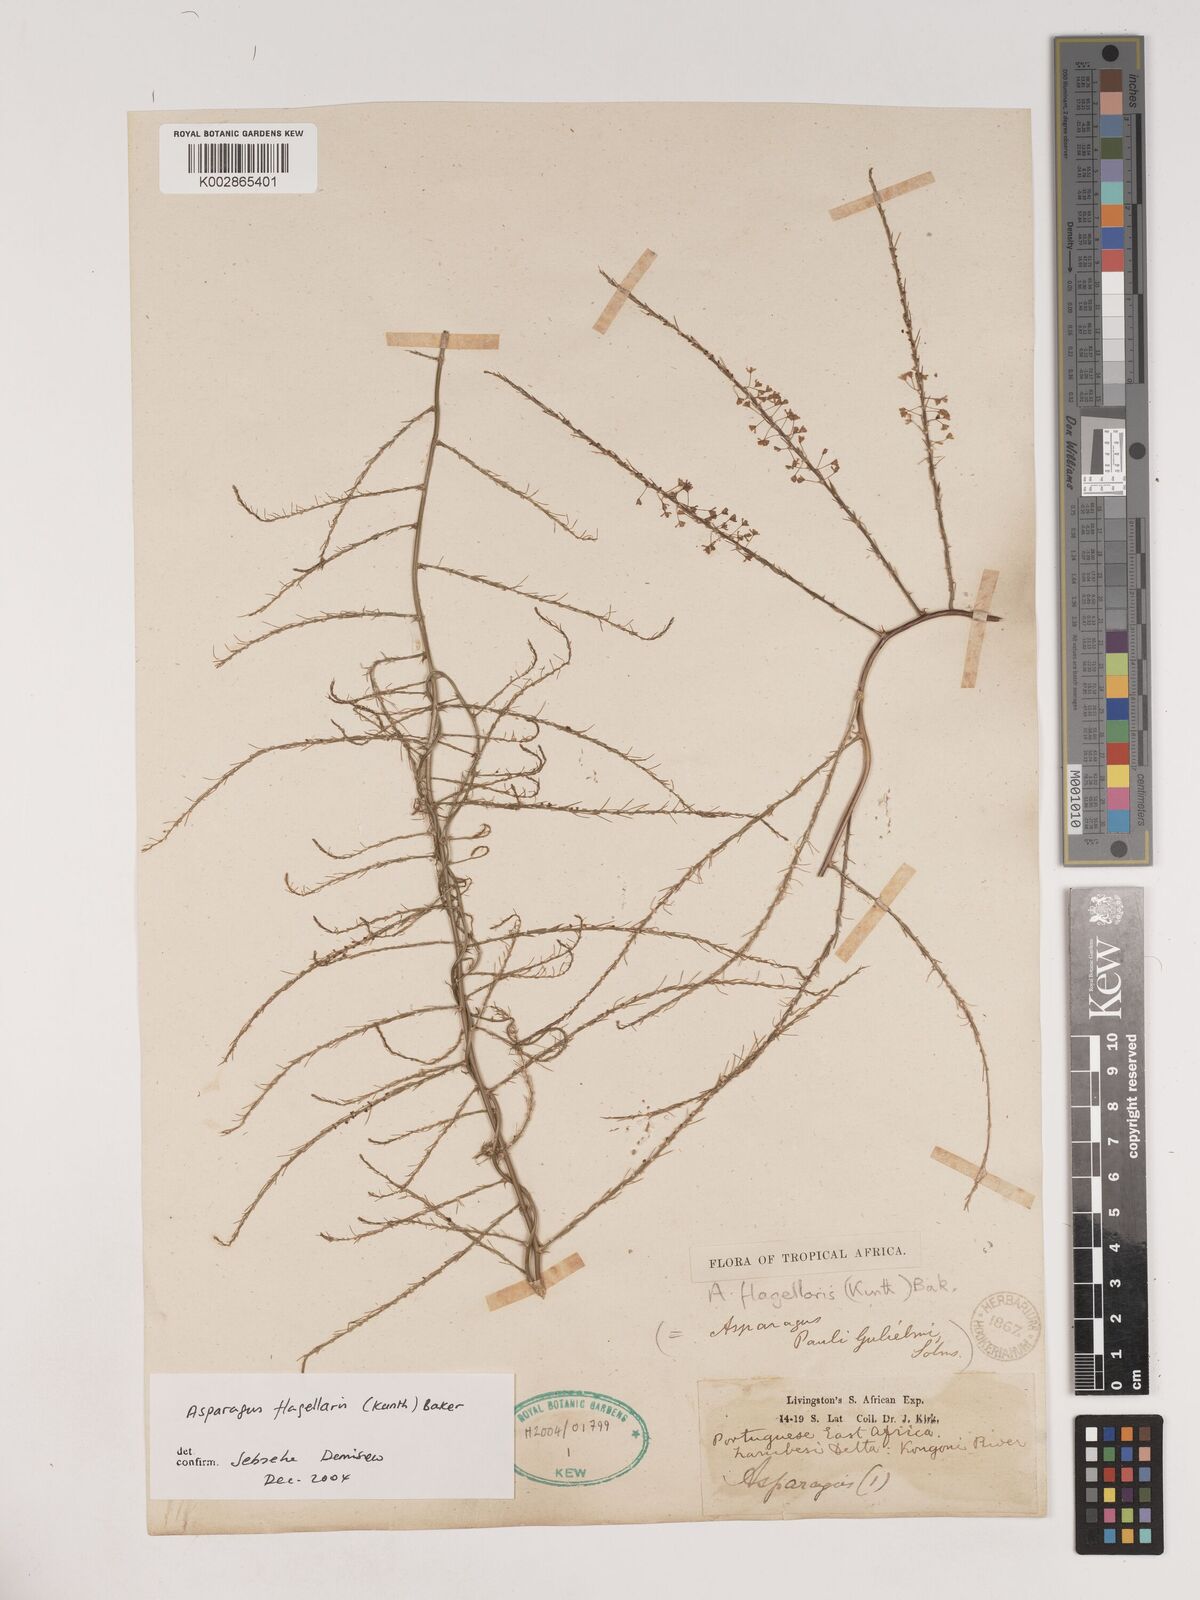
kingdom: Plantae
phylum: Tracheophyta
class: Liliopsida
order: Asparagales
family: Asparagaceae
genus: Asparagus
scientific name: Asparagus flagellaris
